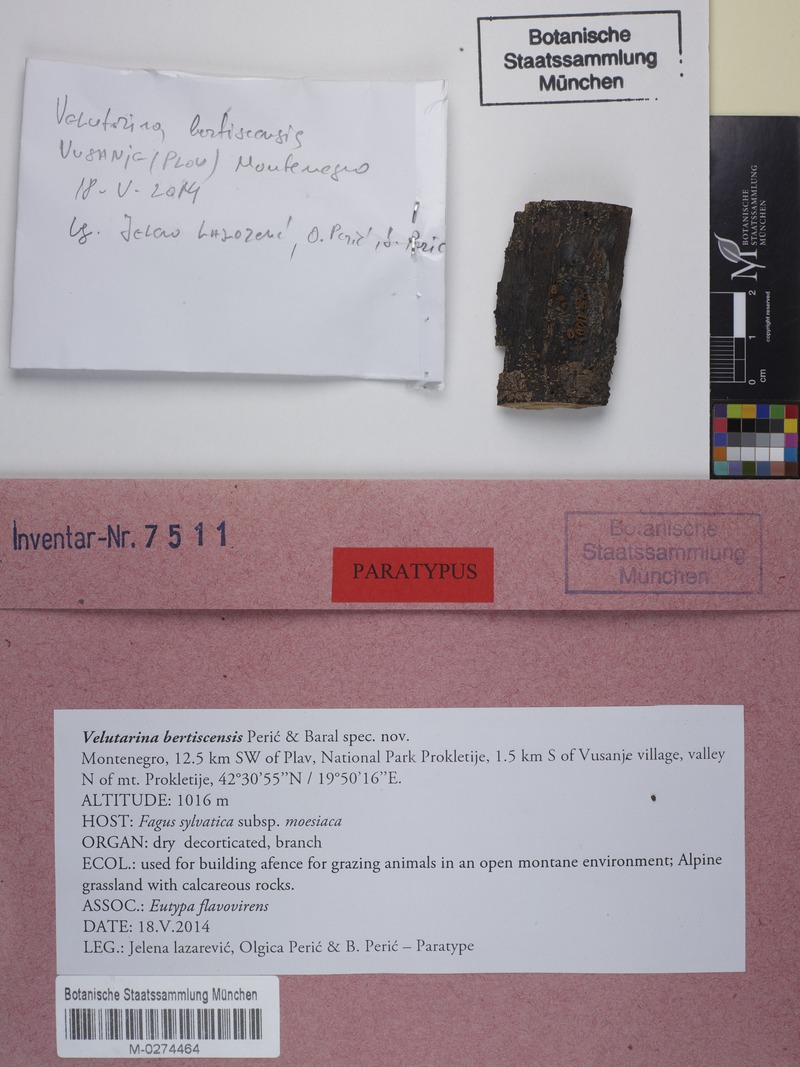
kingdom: Fungi
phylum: Ascomycota
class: Leotiomycetes
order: Helotiales
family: Cenangiaceae
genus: Velutarina
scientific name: Velutarina bertiscensis
